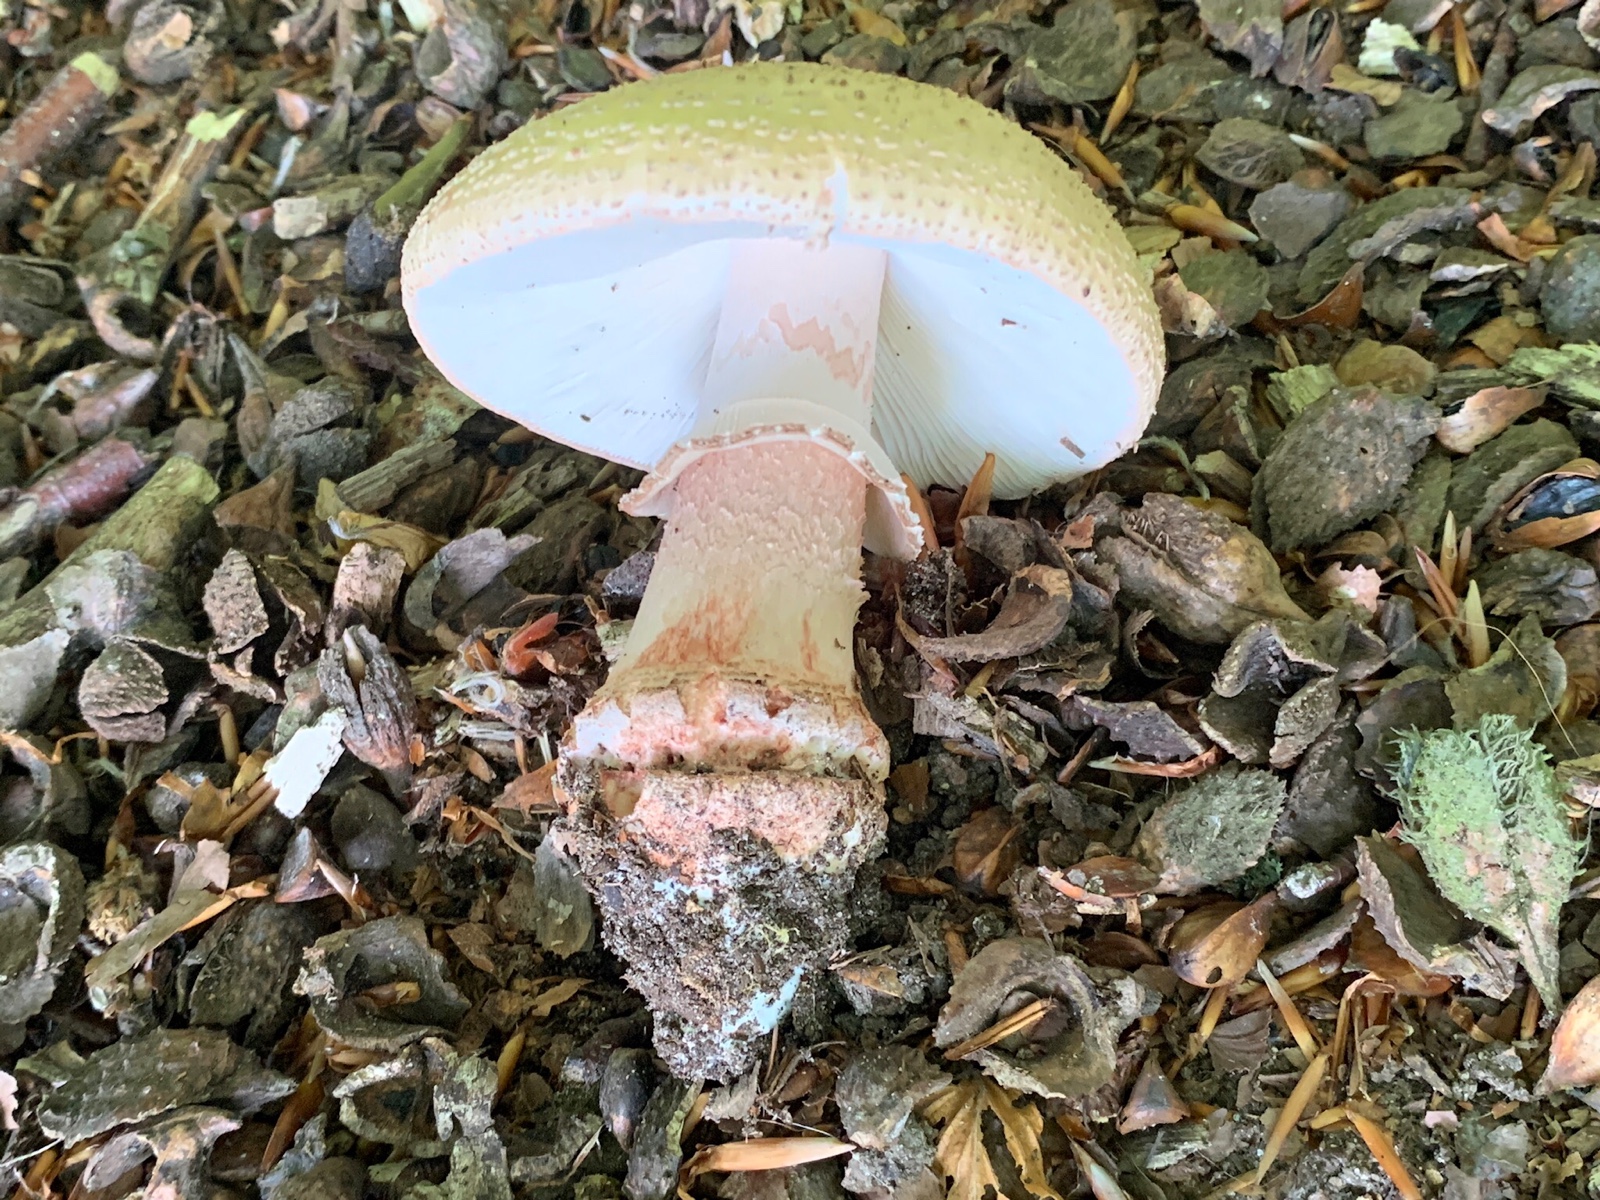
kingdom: Fungi
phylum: Basidiomycota
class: Agaricomycetes
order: Agaricales
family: Amanitaceae
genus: Amanita
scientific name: Amanita rubescens
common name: rødmende fluesvamp
